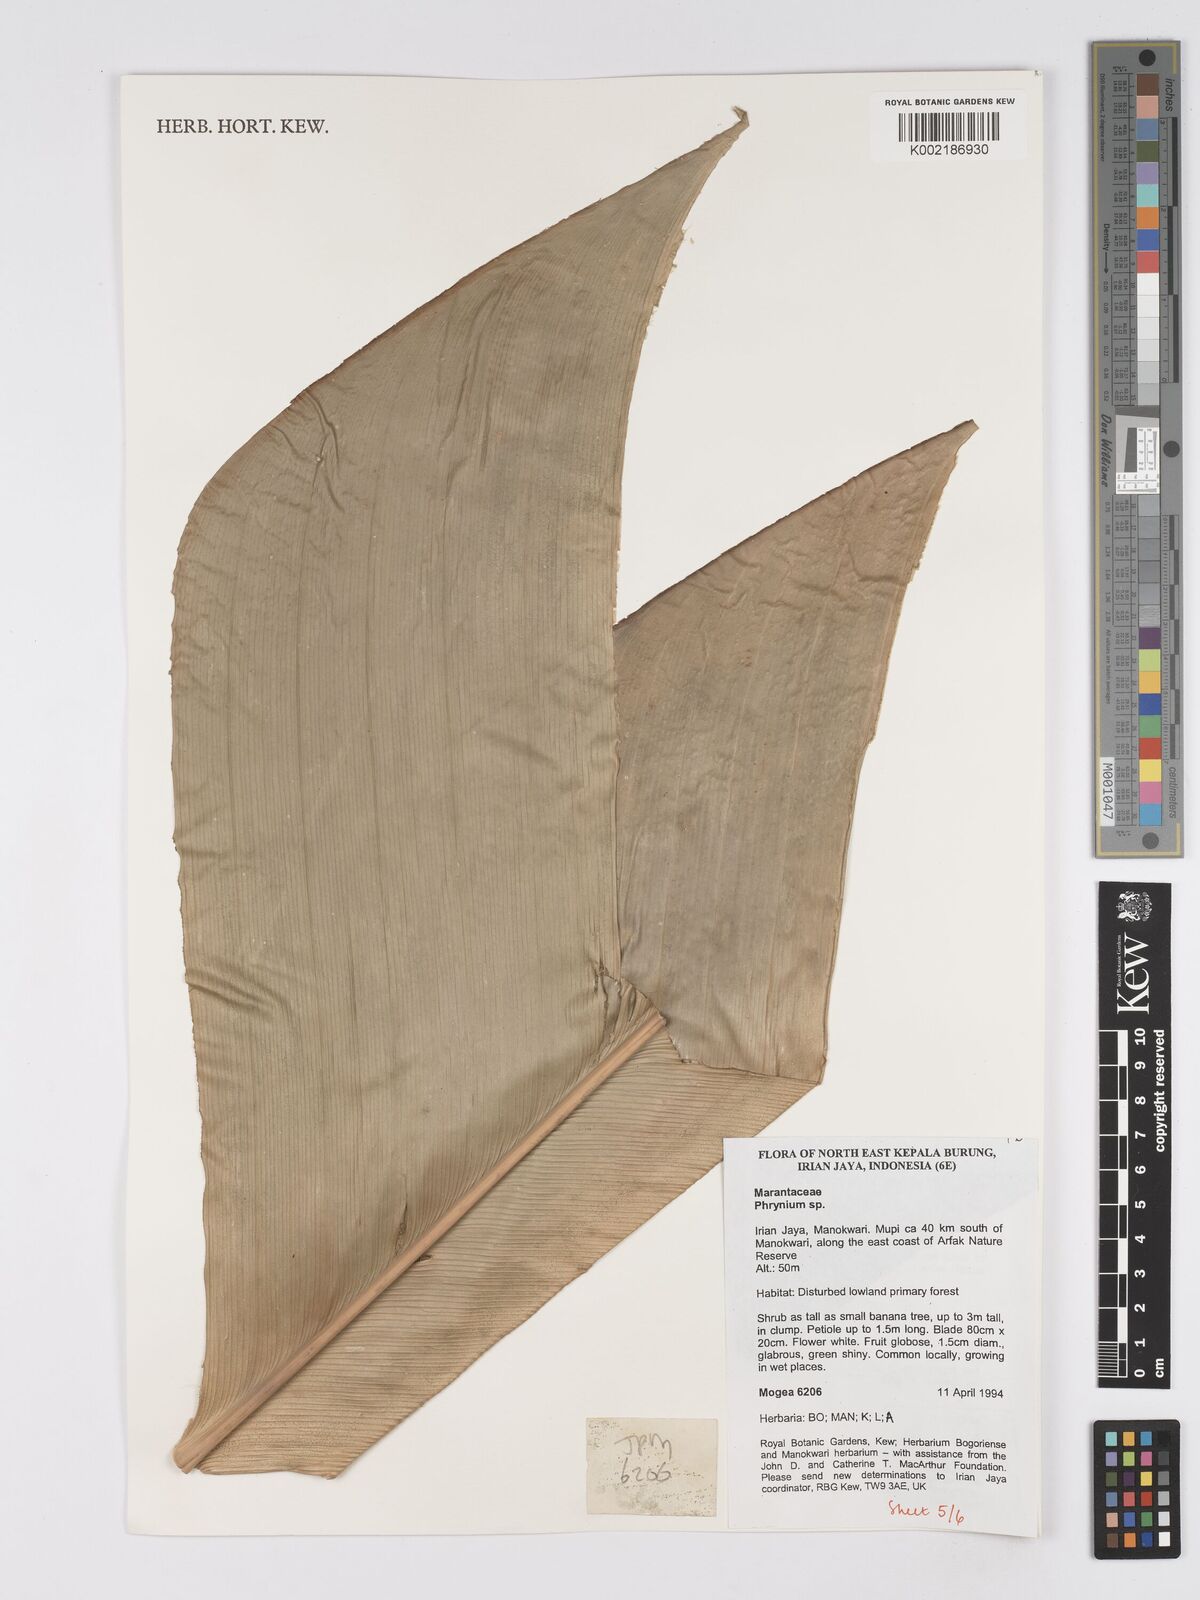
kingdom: Plantae
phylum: Tracheophyta
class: Liliopsida
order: Zingiberales
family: Marantaceae
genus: Phrynium
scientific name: Phrynium
